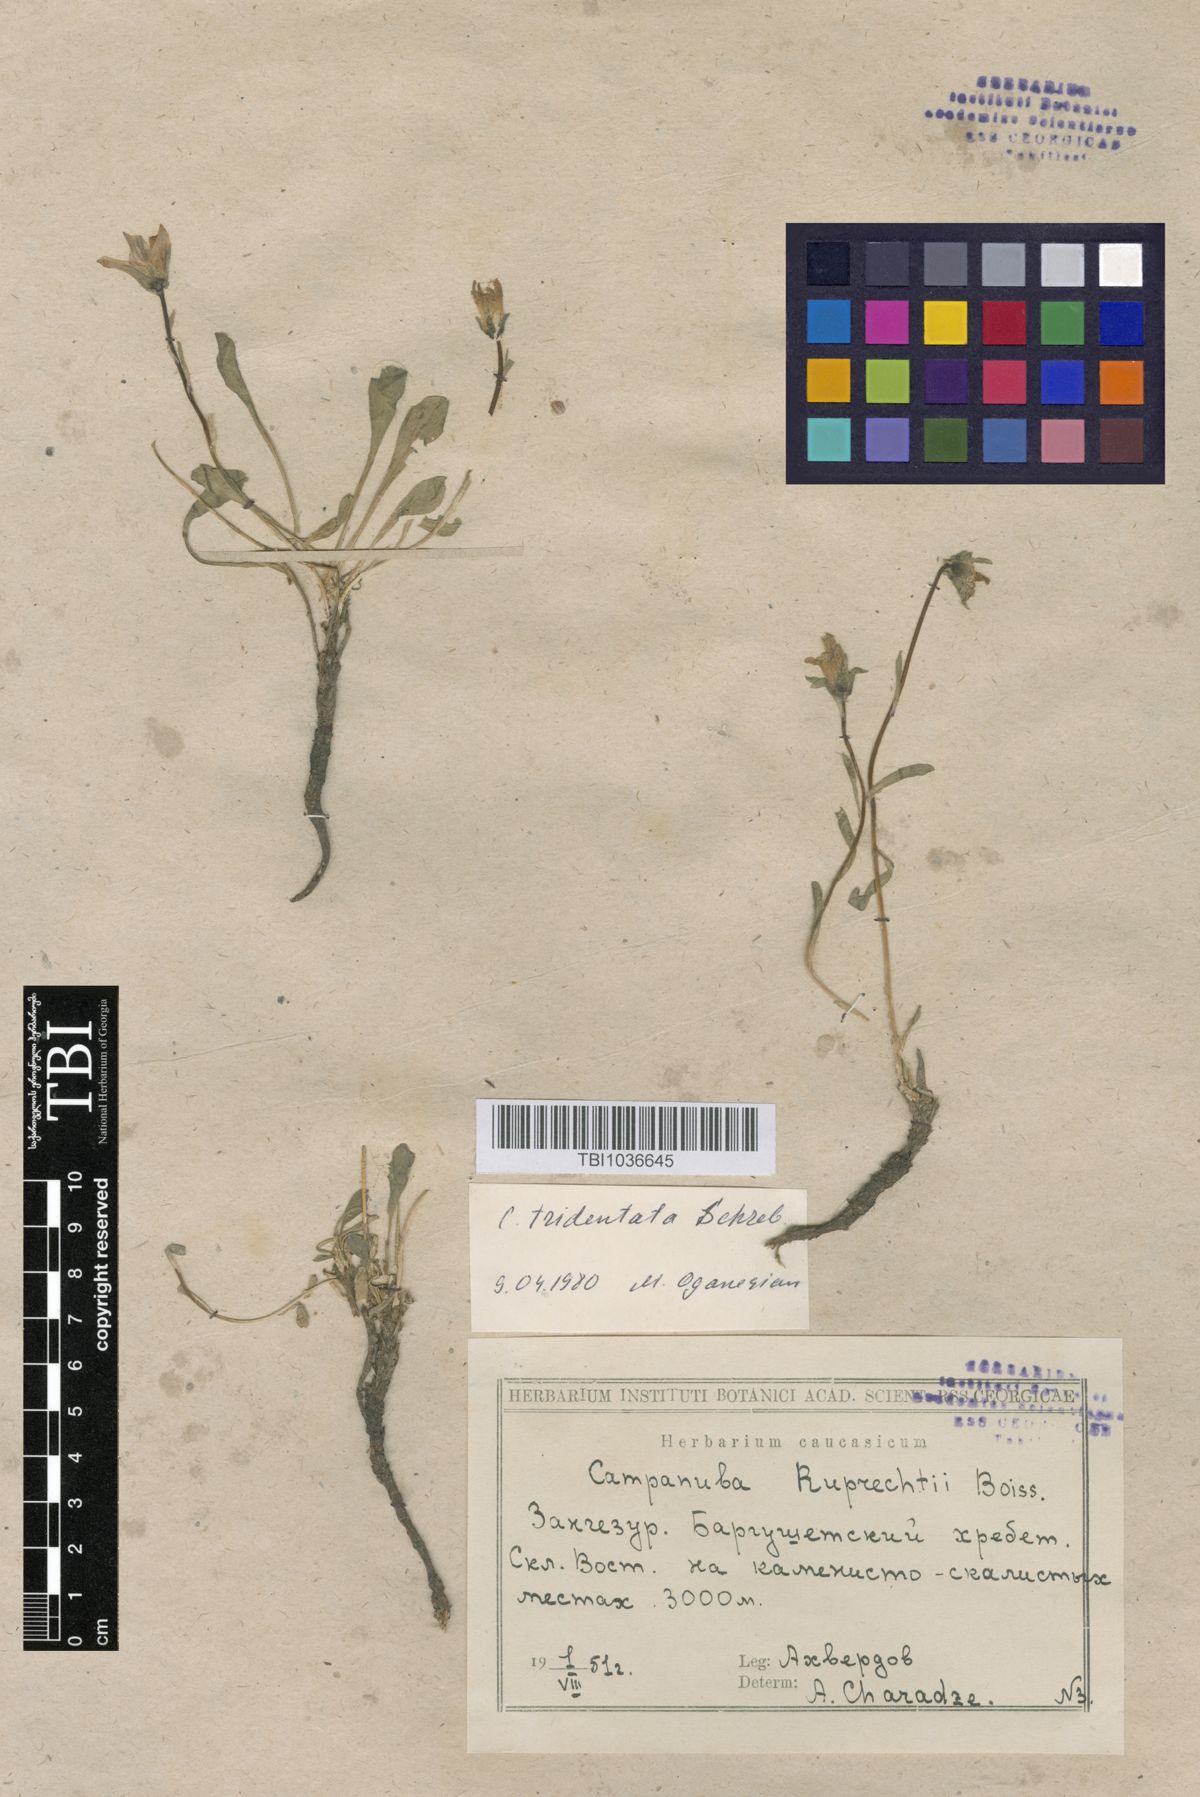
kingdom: Plantae
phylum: Tracheophyta
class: Magnoliopsida
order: Asterales
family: Campanulaceae
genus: Campanula
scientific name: Campanula tridentata
